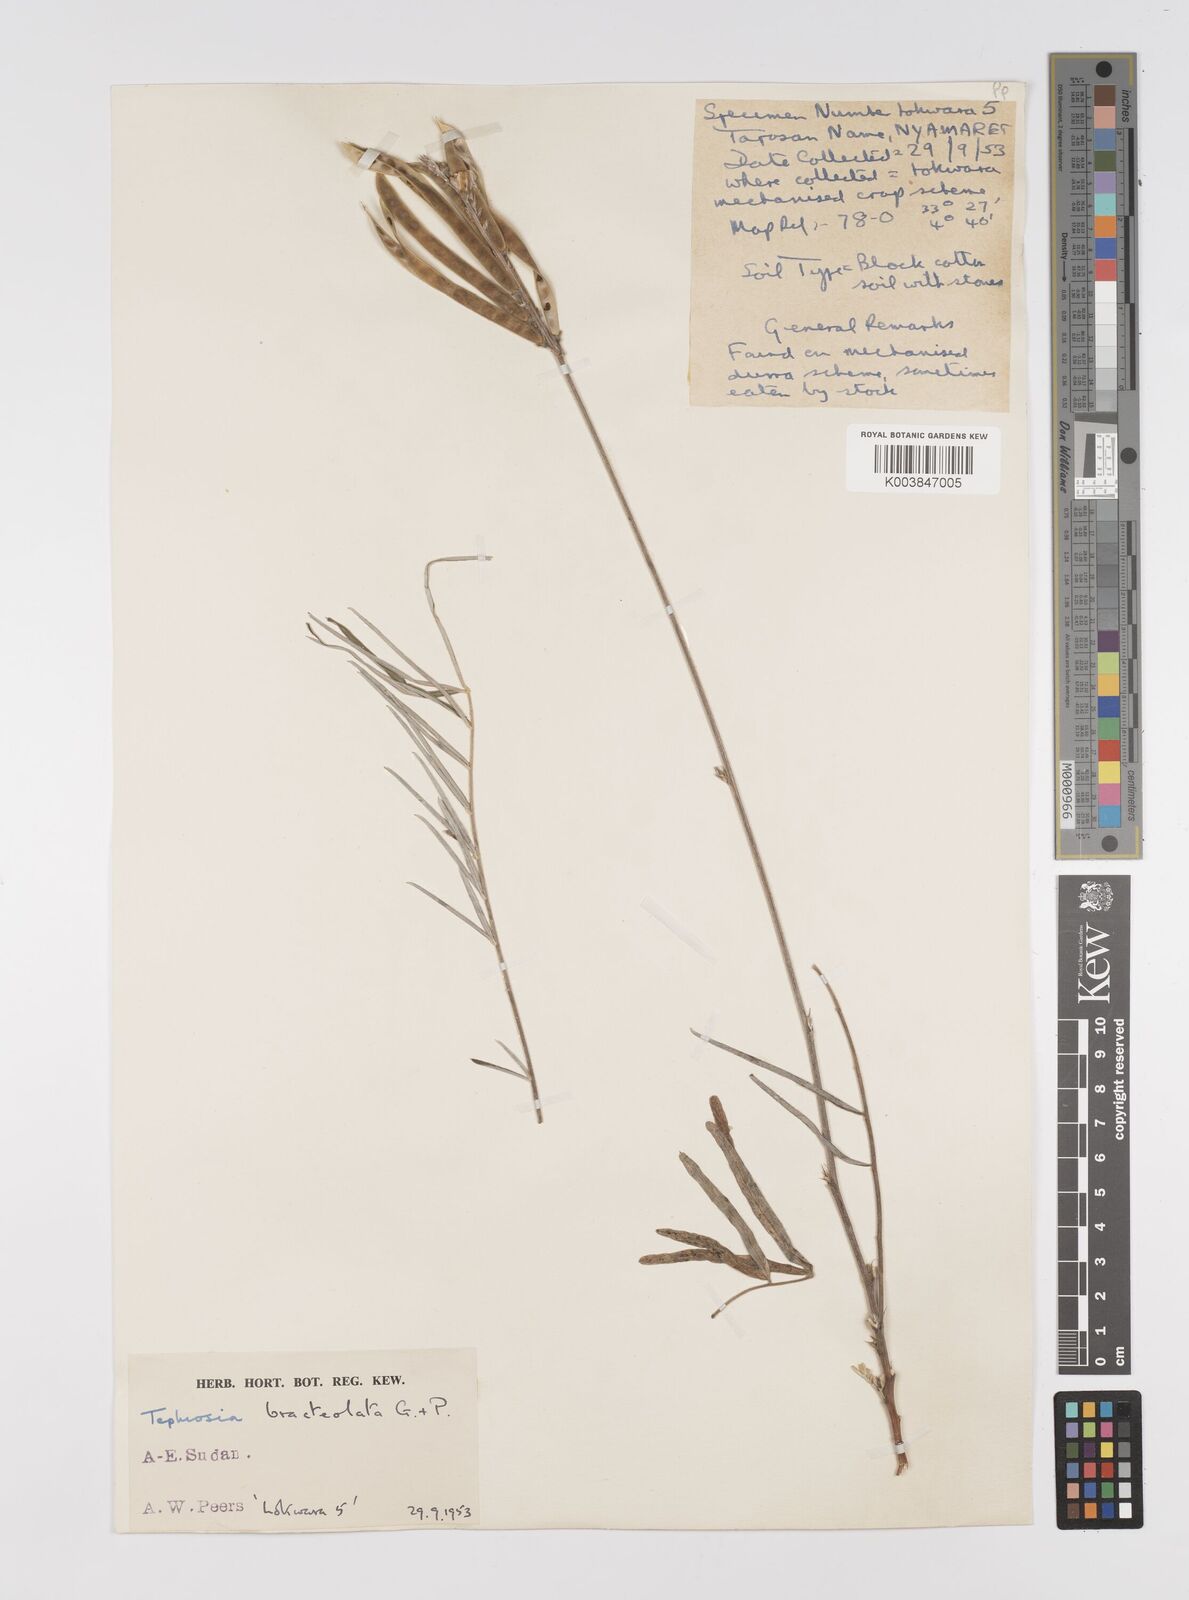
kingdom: Plantae
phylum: Tracheophyta
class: Magnoliopsida
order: Fabales
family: Fabaceae
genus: Tephrosia
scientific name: Tephrosia bracteolata
